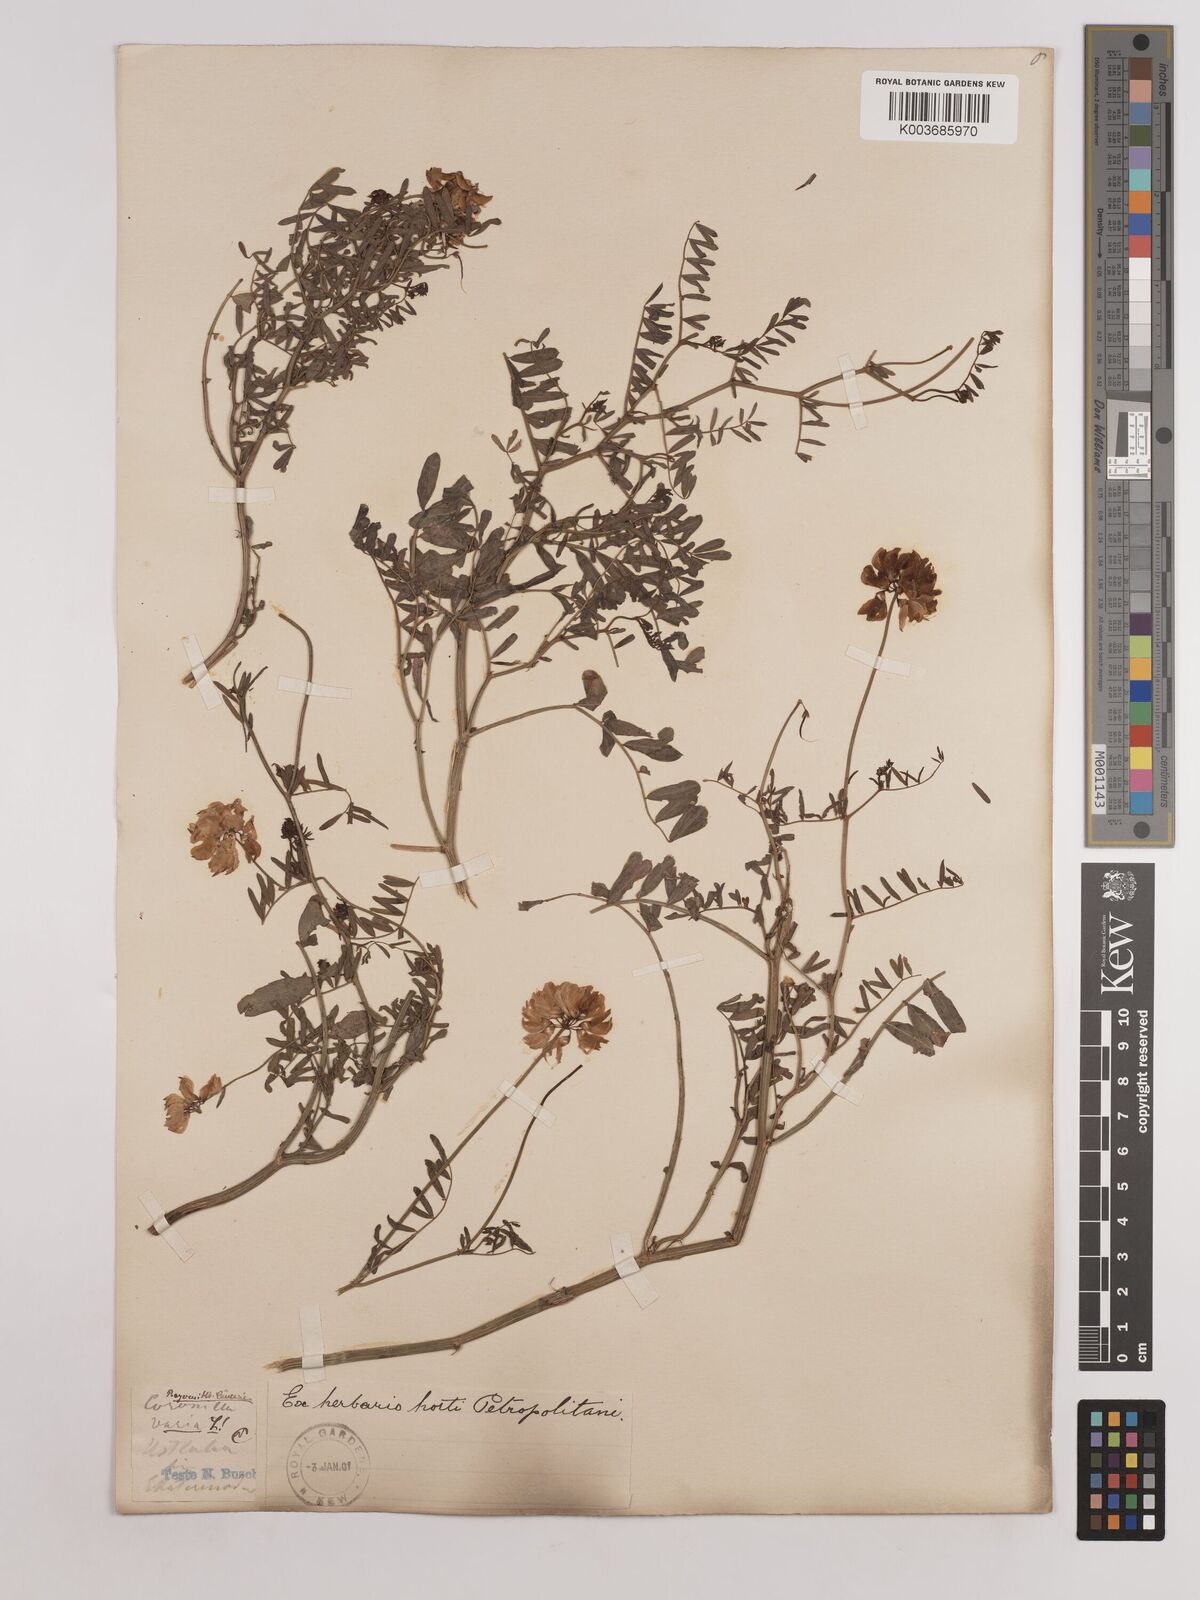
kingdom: Plantae
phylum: Tracheophyta
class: Magnoliopsida
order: Fabales
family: Fabaceae
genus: Coronilla
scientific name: Coronilla varia
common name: Crownvetch
